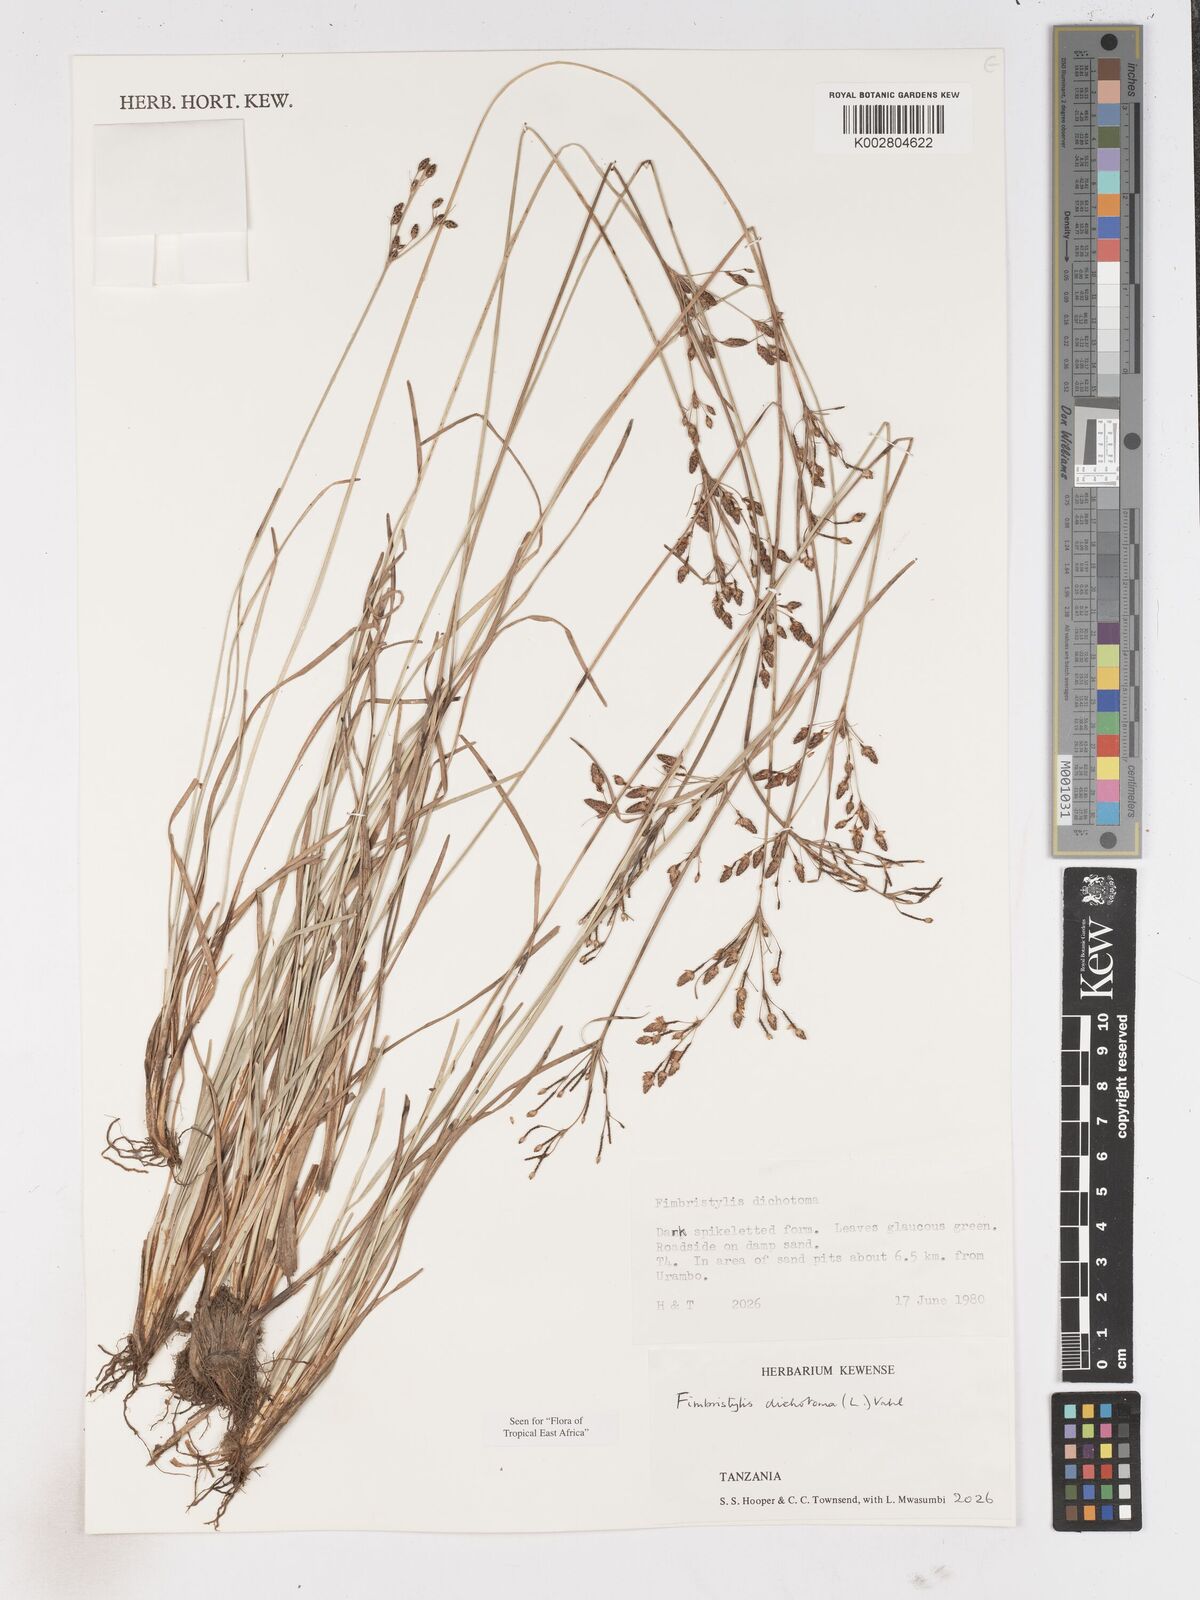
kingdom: Plantae
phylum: Tracheophyta
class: Liliopsida
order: Poales
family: Cyperaceae
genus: Fimbristylis
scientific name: Fimbristylis dichotoma
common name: Forked fimbry
